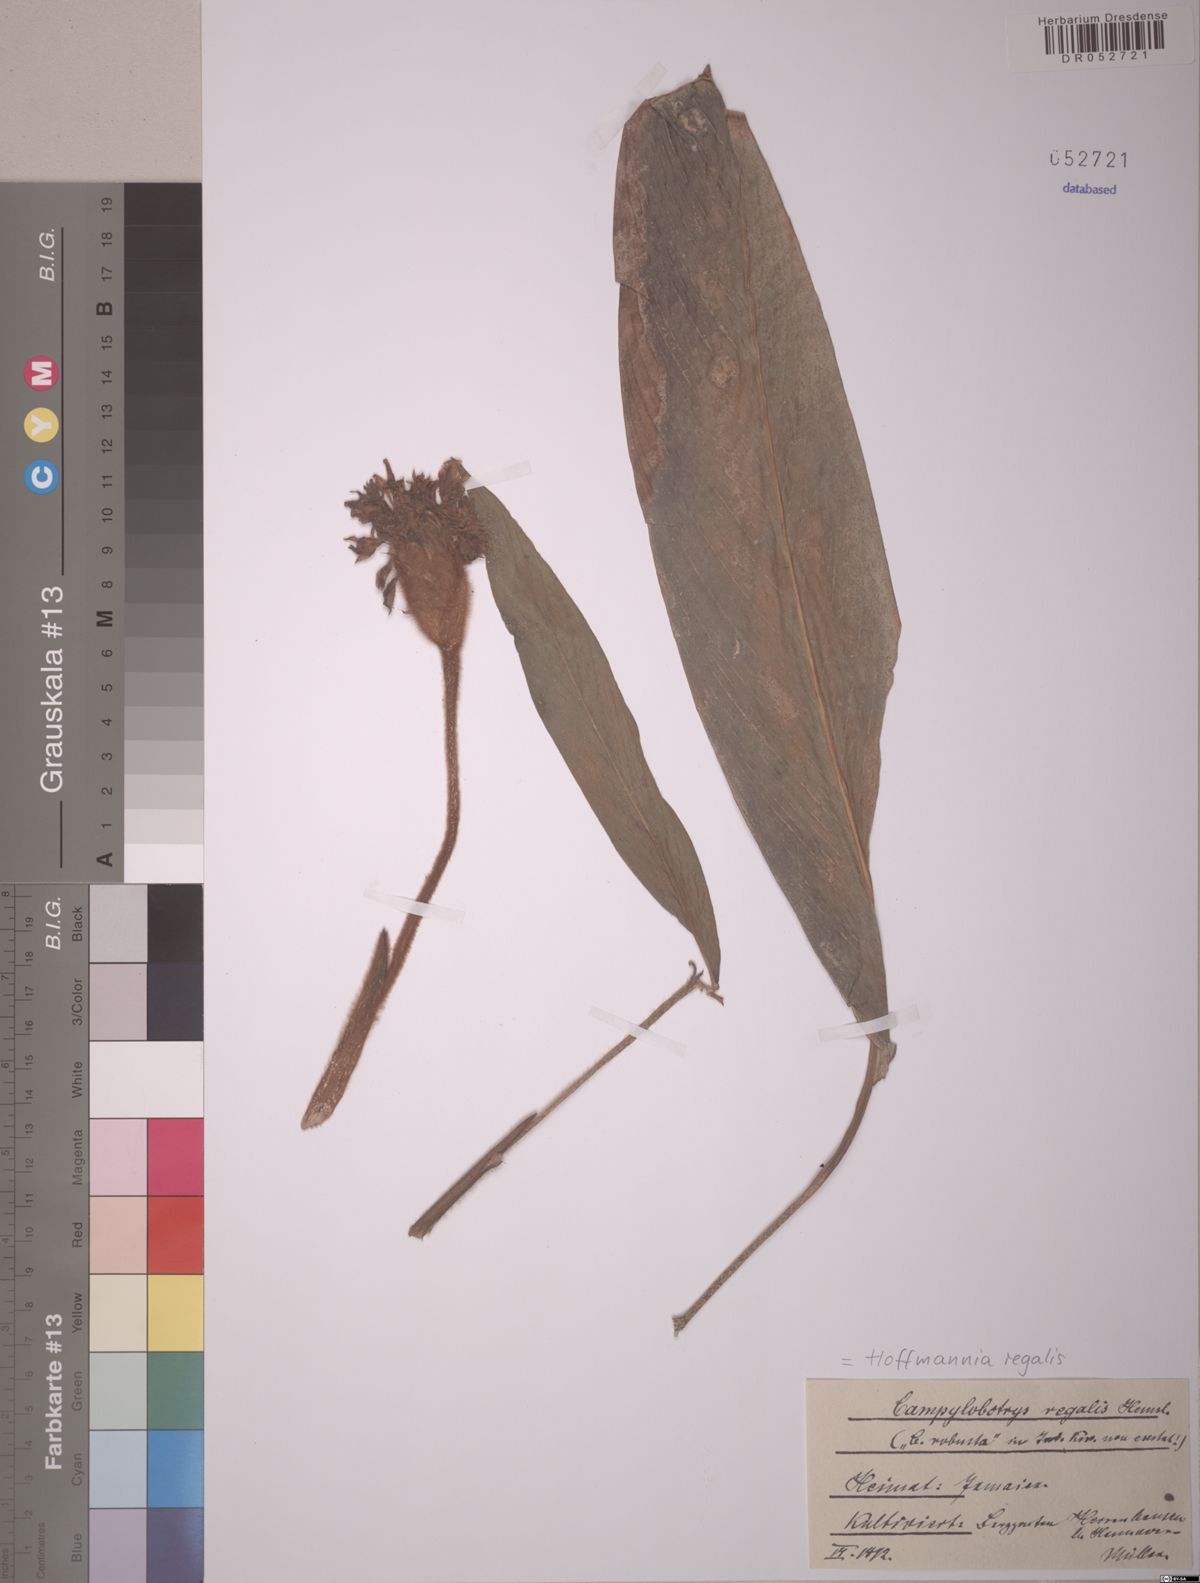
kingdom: Plantae
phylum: Tracheophyta
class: Magnoliopsida
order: Gentianales
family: Rubiaceae
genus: Hoffmannia
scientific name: Hoffmannia regalis
